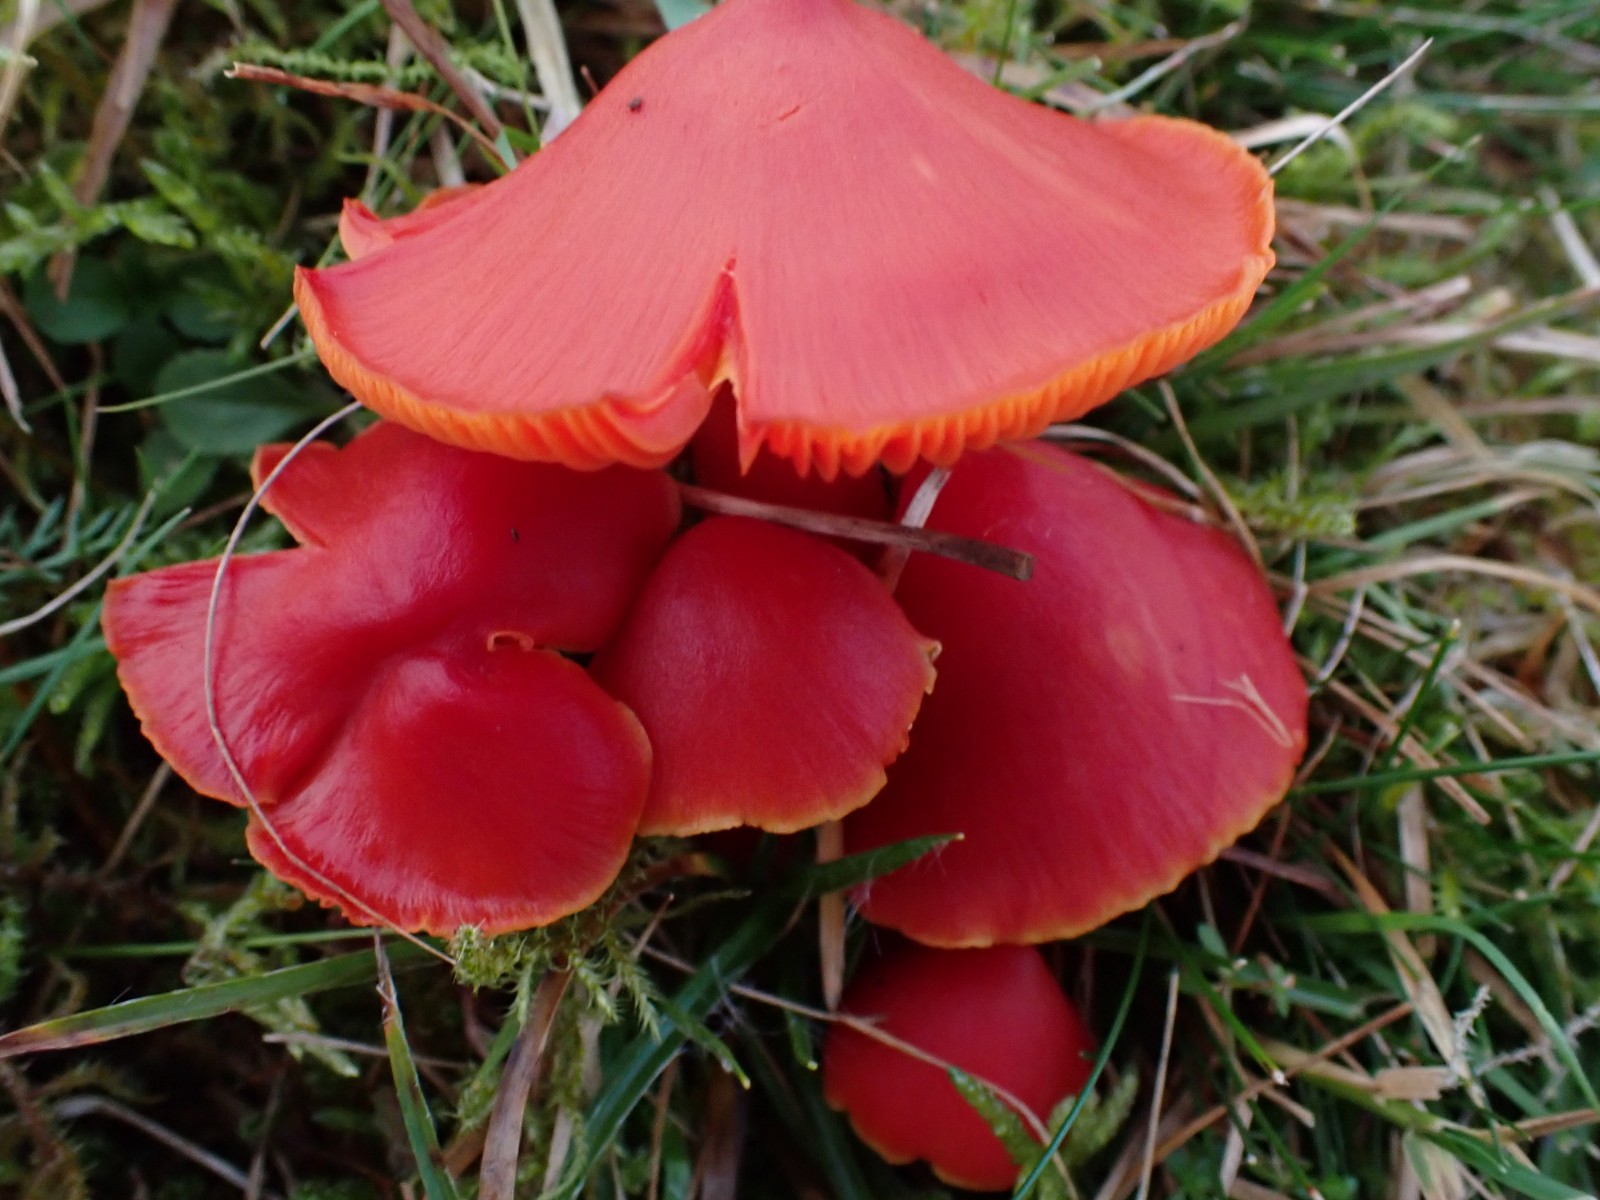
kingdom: Fungi
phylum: Basidiomycota
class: Agaricomycetes
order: Agaricales
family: Hygrophoraceae
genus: Hygrocybe
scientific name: Hygrocybe splendidissima
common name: knaldrød vokshat
